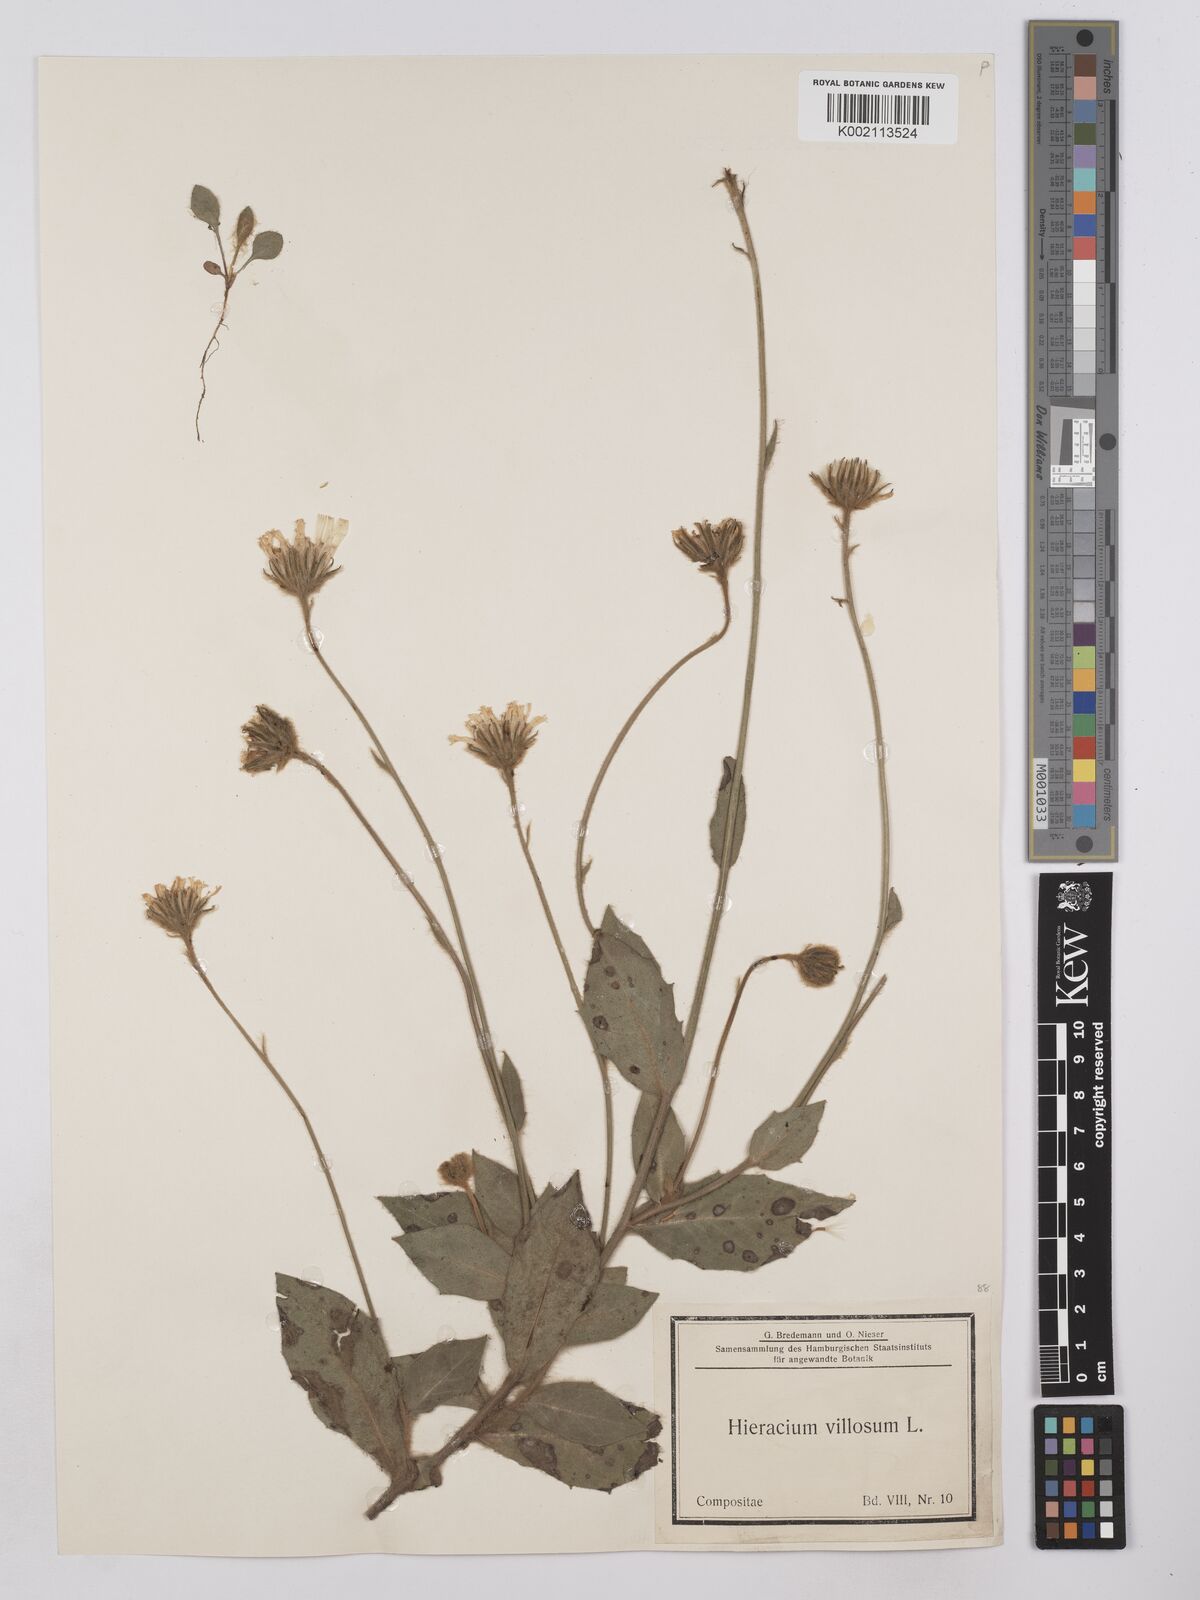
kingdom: Plantae
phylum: Tracheophyta
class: Magnoliopsida
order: Asterales
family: Asteraceae
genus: Hieracium
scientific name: Hieracium
